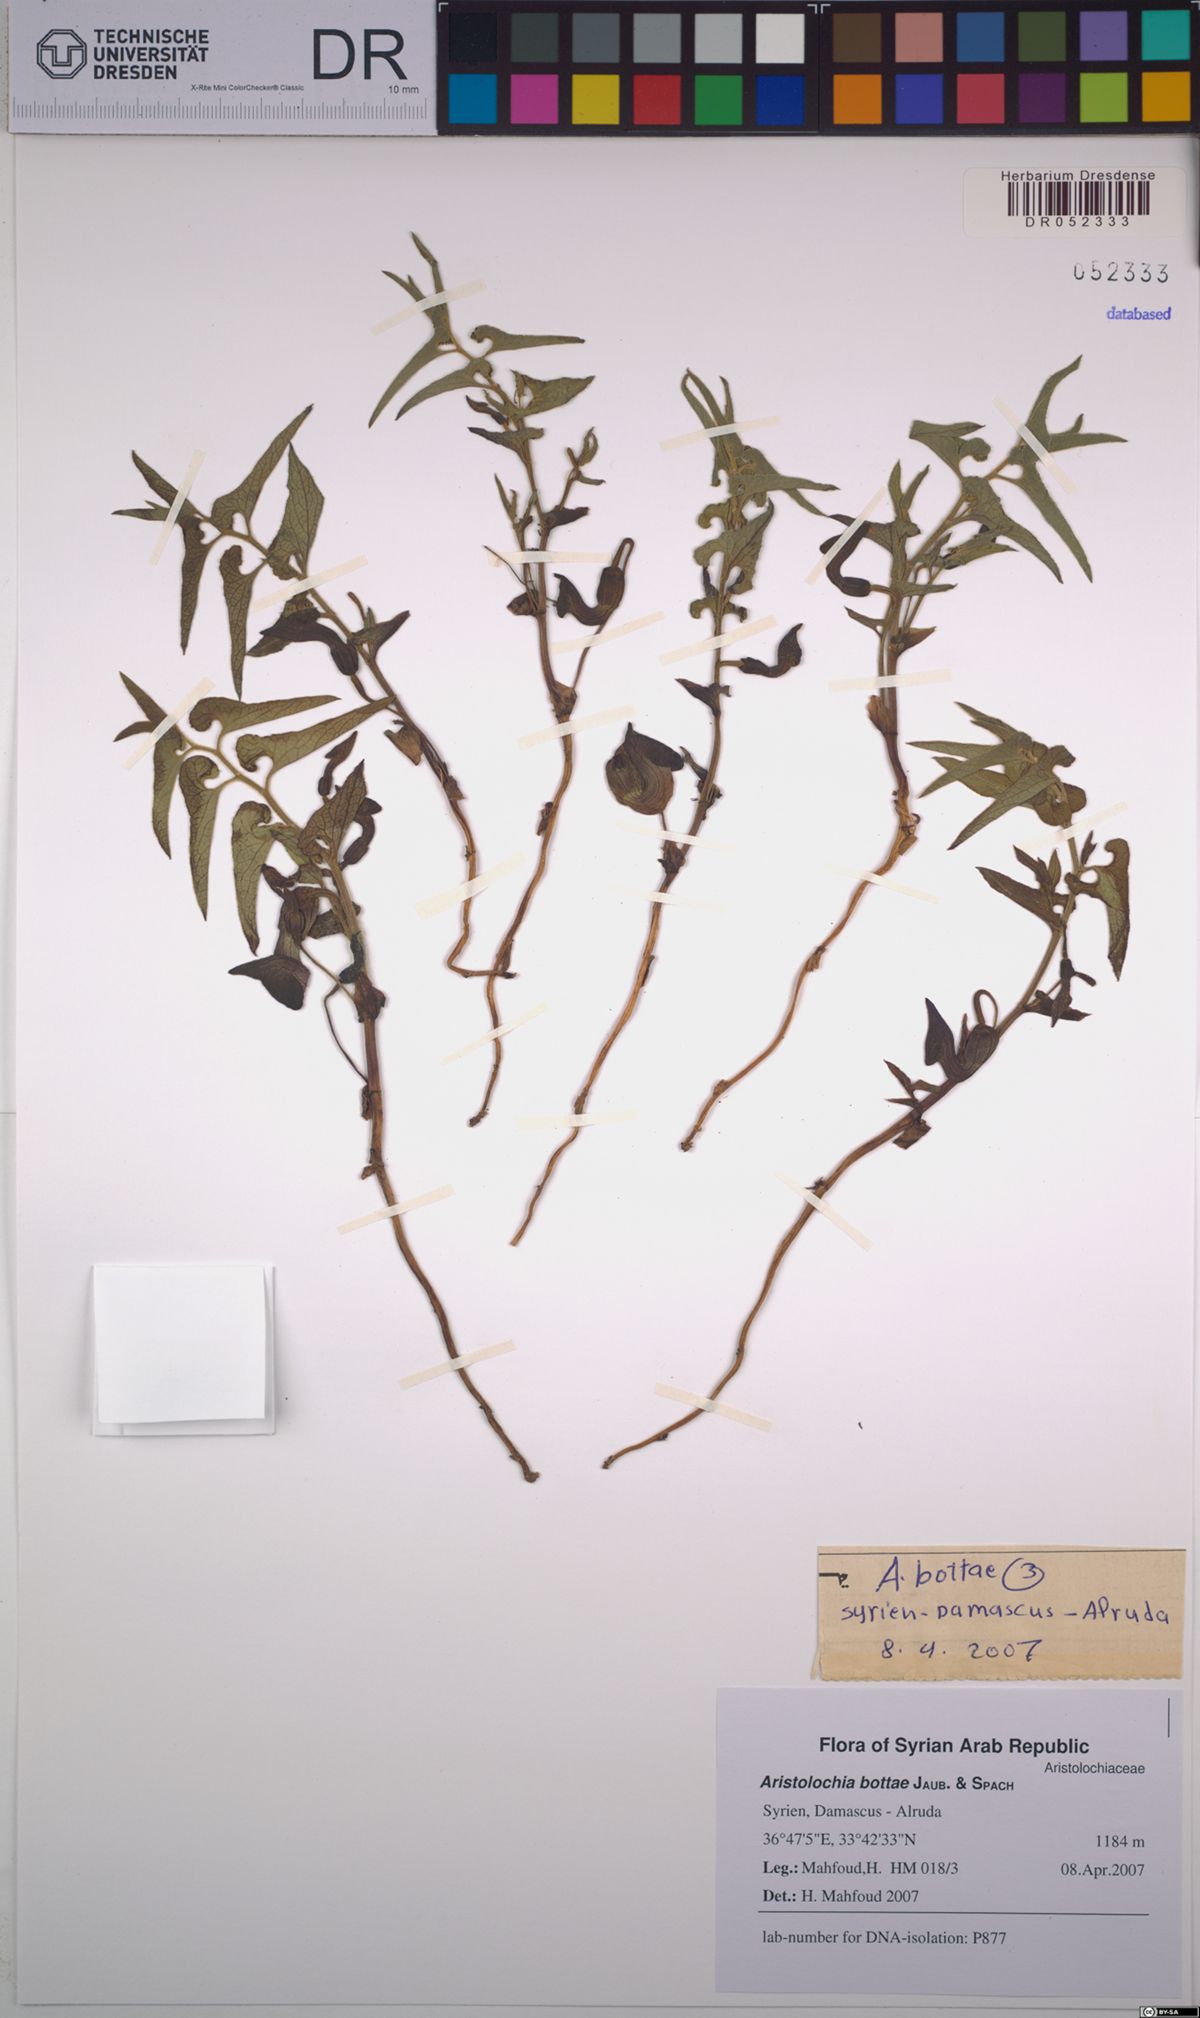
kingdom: Plantae
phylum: Tracheophyta
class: Magnoliopsida
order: Piperales
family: Aristolochiaceae
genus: Aristolochia
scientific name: Aristolochia bottae
